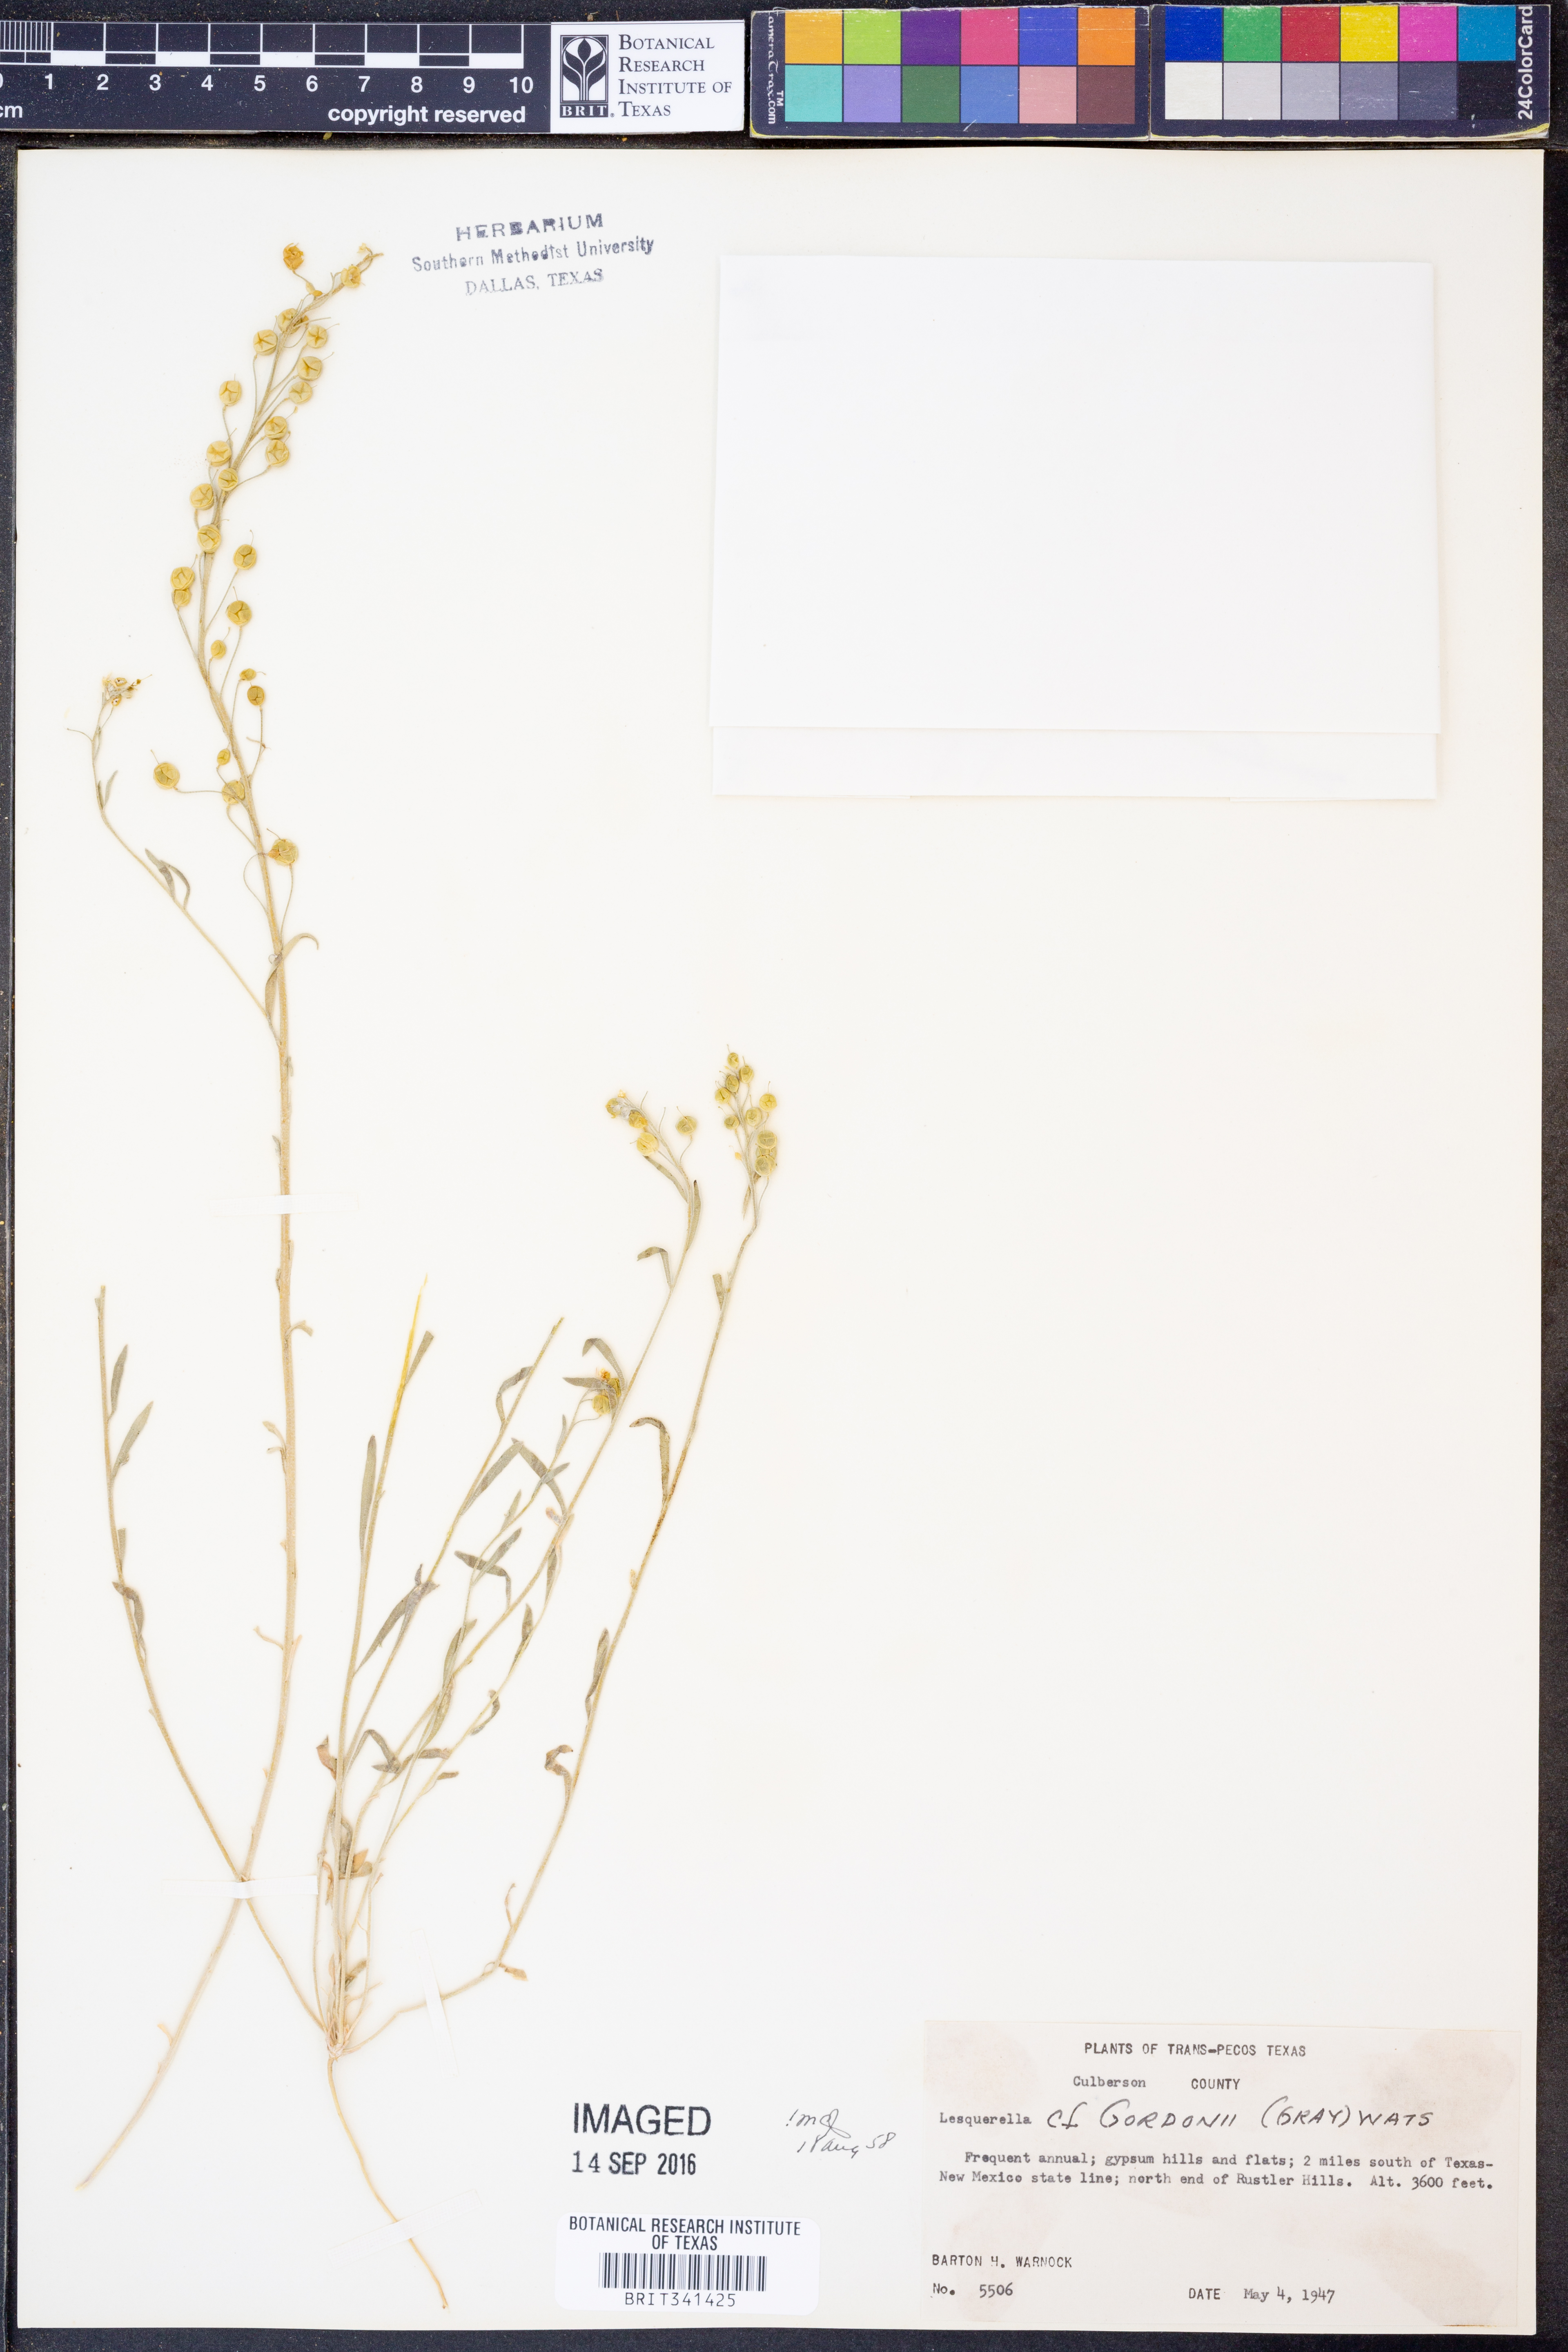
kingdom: Plantae
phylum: Tracheophyta
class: Magnoliopsida
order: Brassicales
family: Brassicaceae
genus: Physaria
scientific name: Physaria gordonii
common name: Gordon's bladderpod
